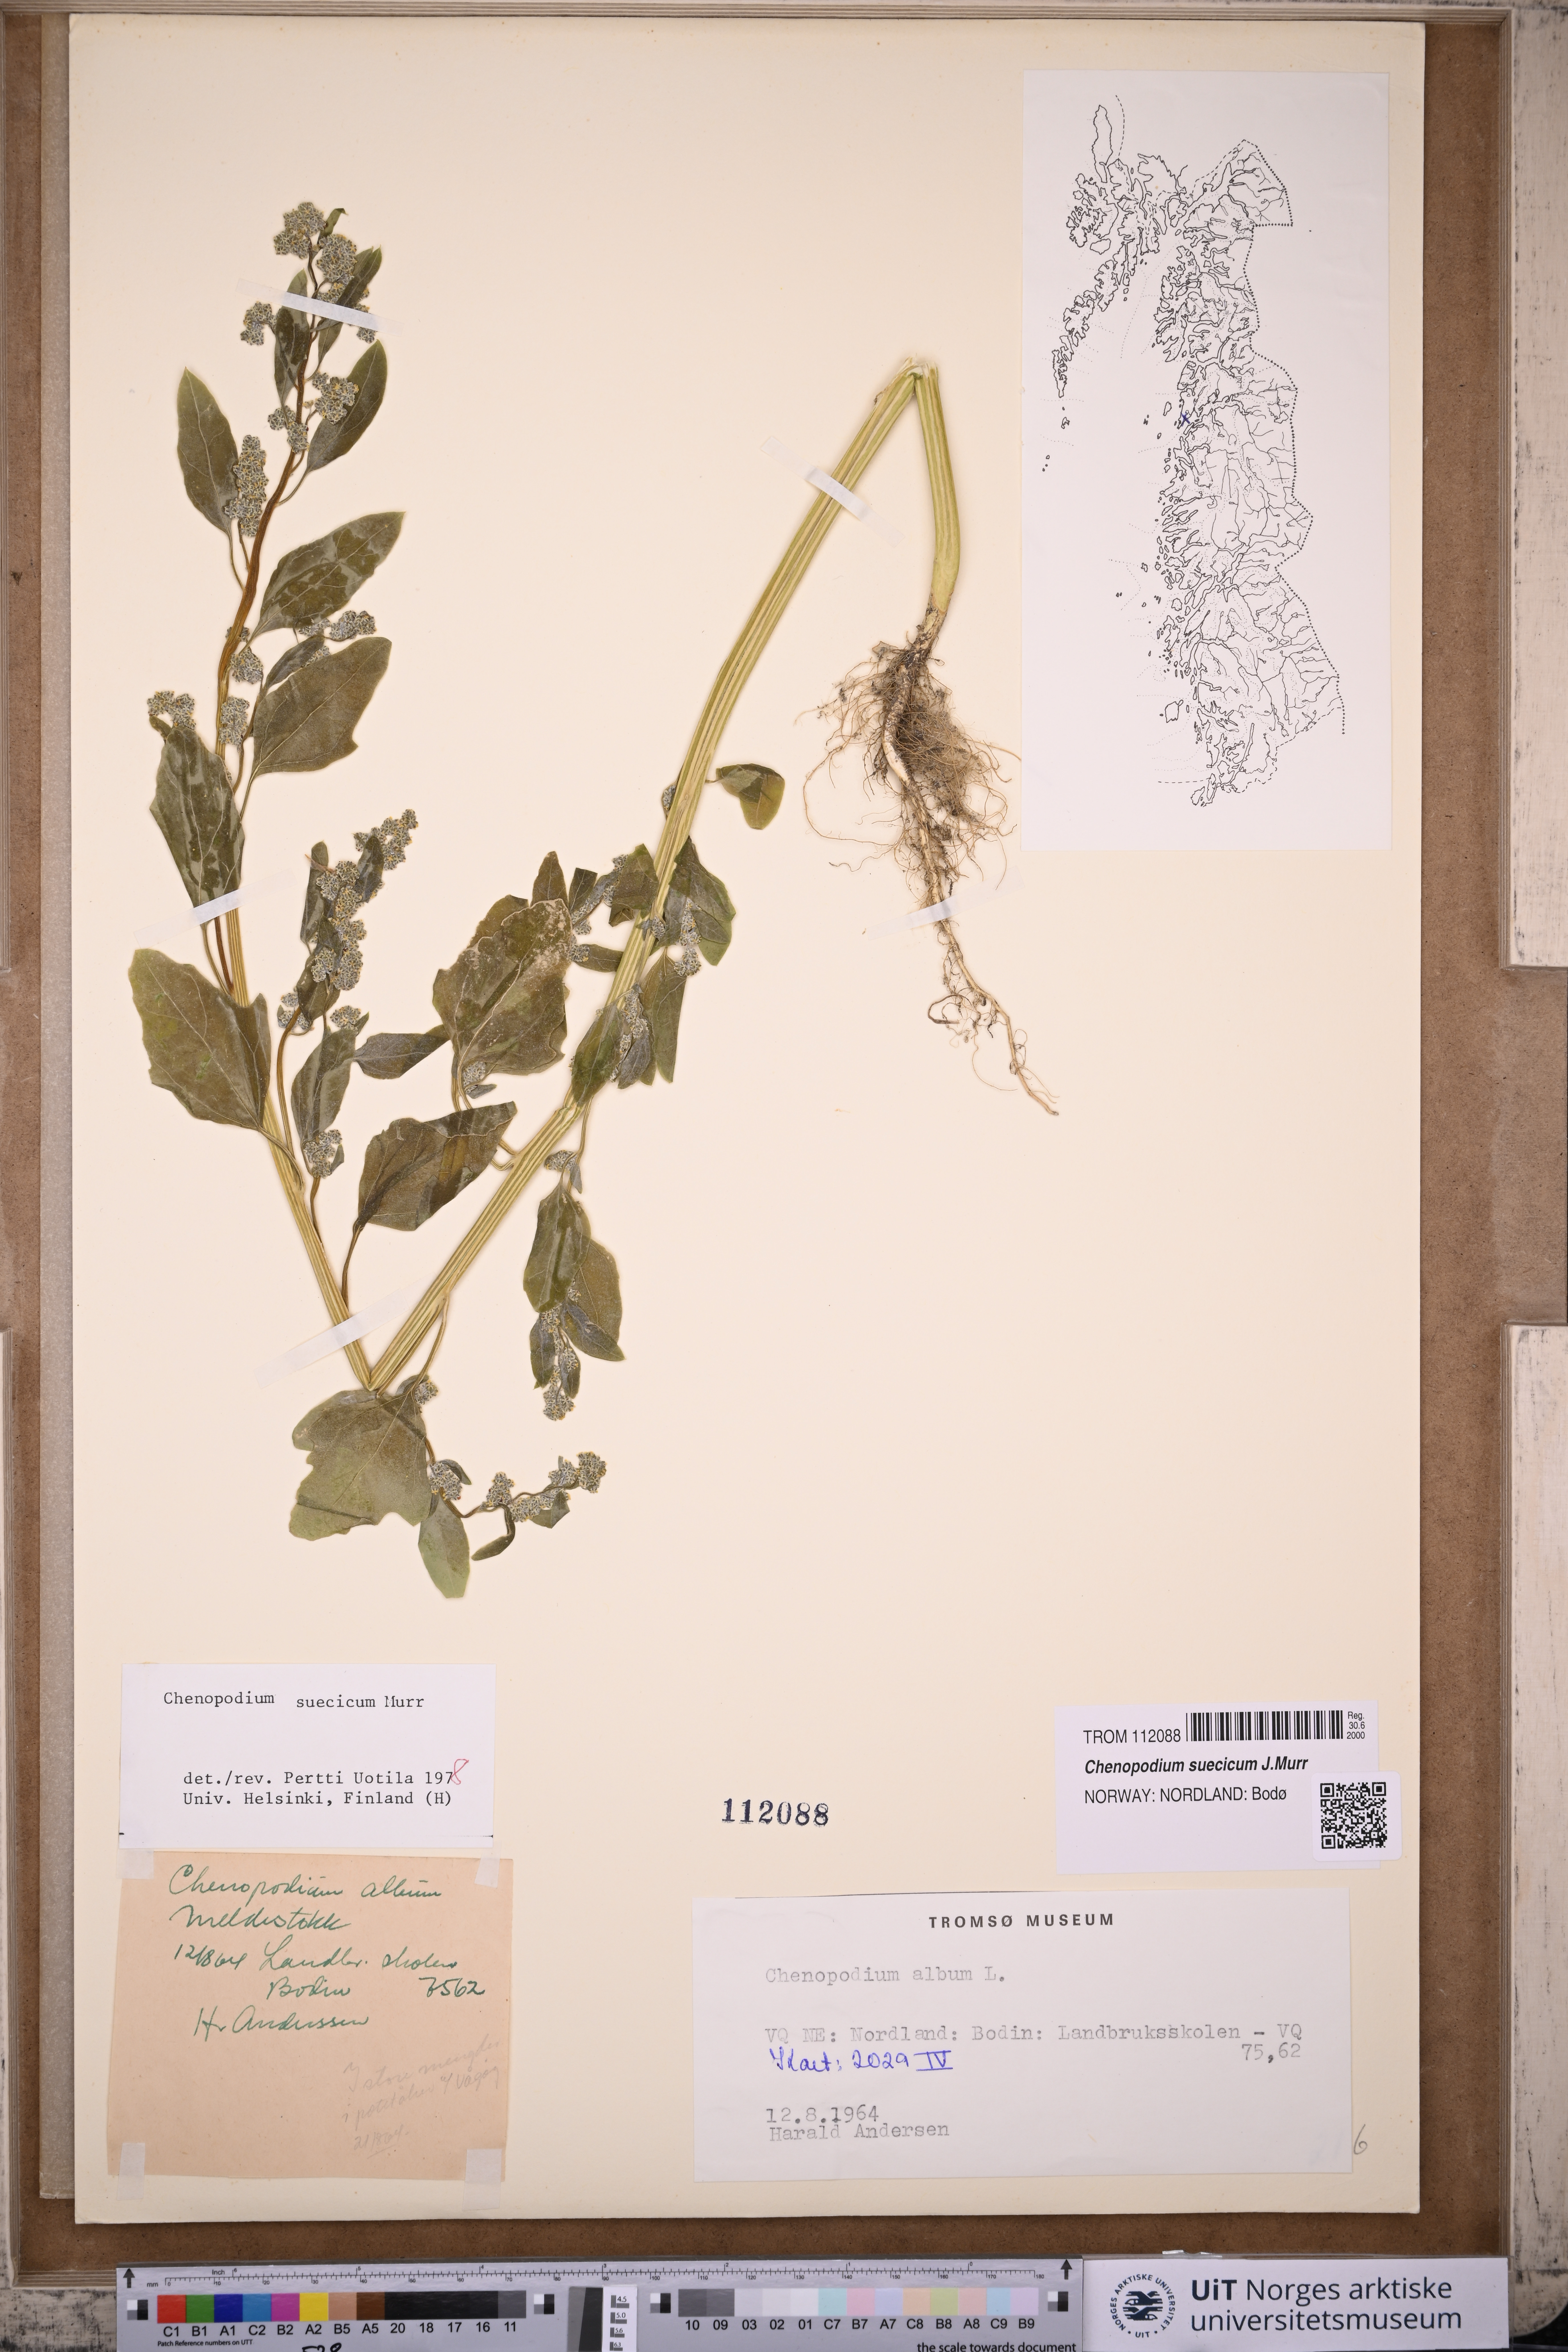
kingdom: Plantae
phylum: Tracheophyta
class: Magnoliopsida
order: Caryophyllales
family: Amaranthaceae
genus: Chenopodium
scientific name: Chenopodium suecicum
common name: Swedish goosefoot
